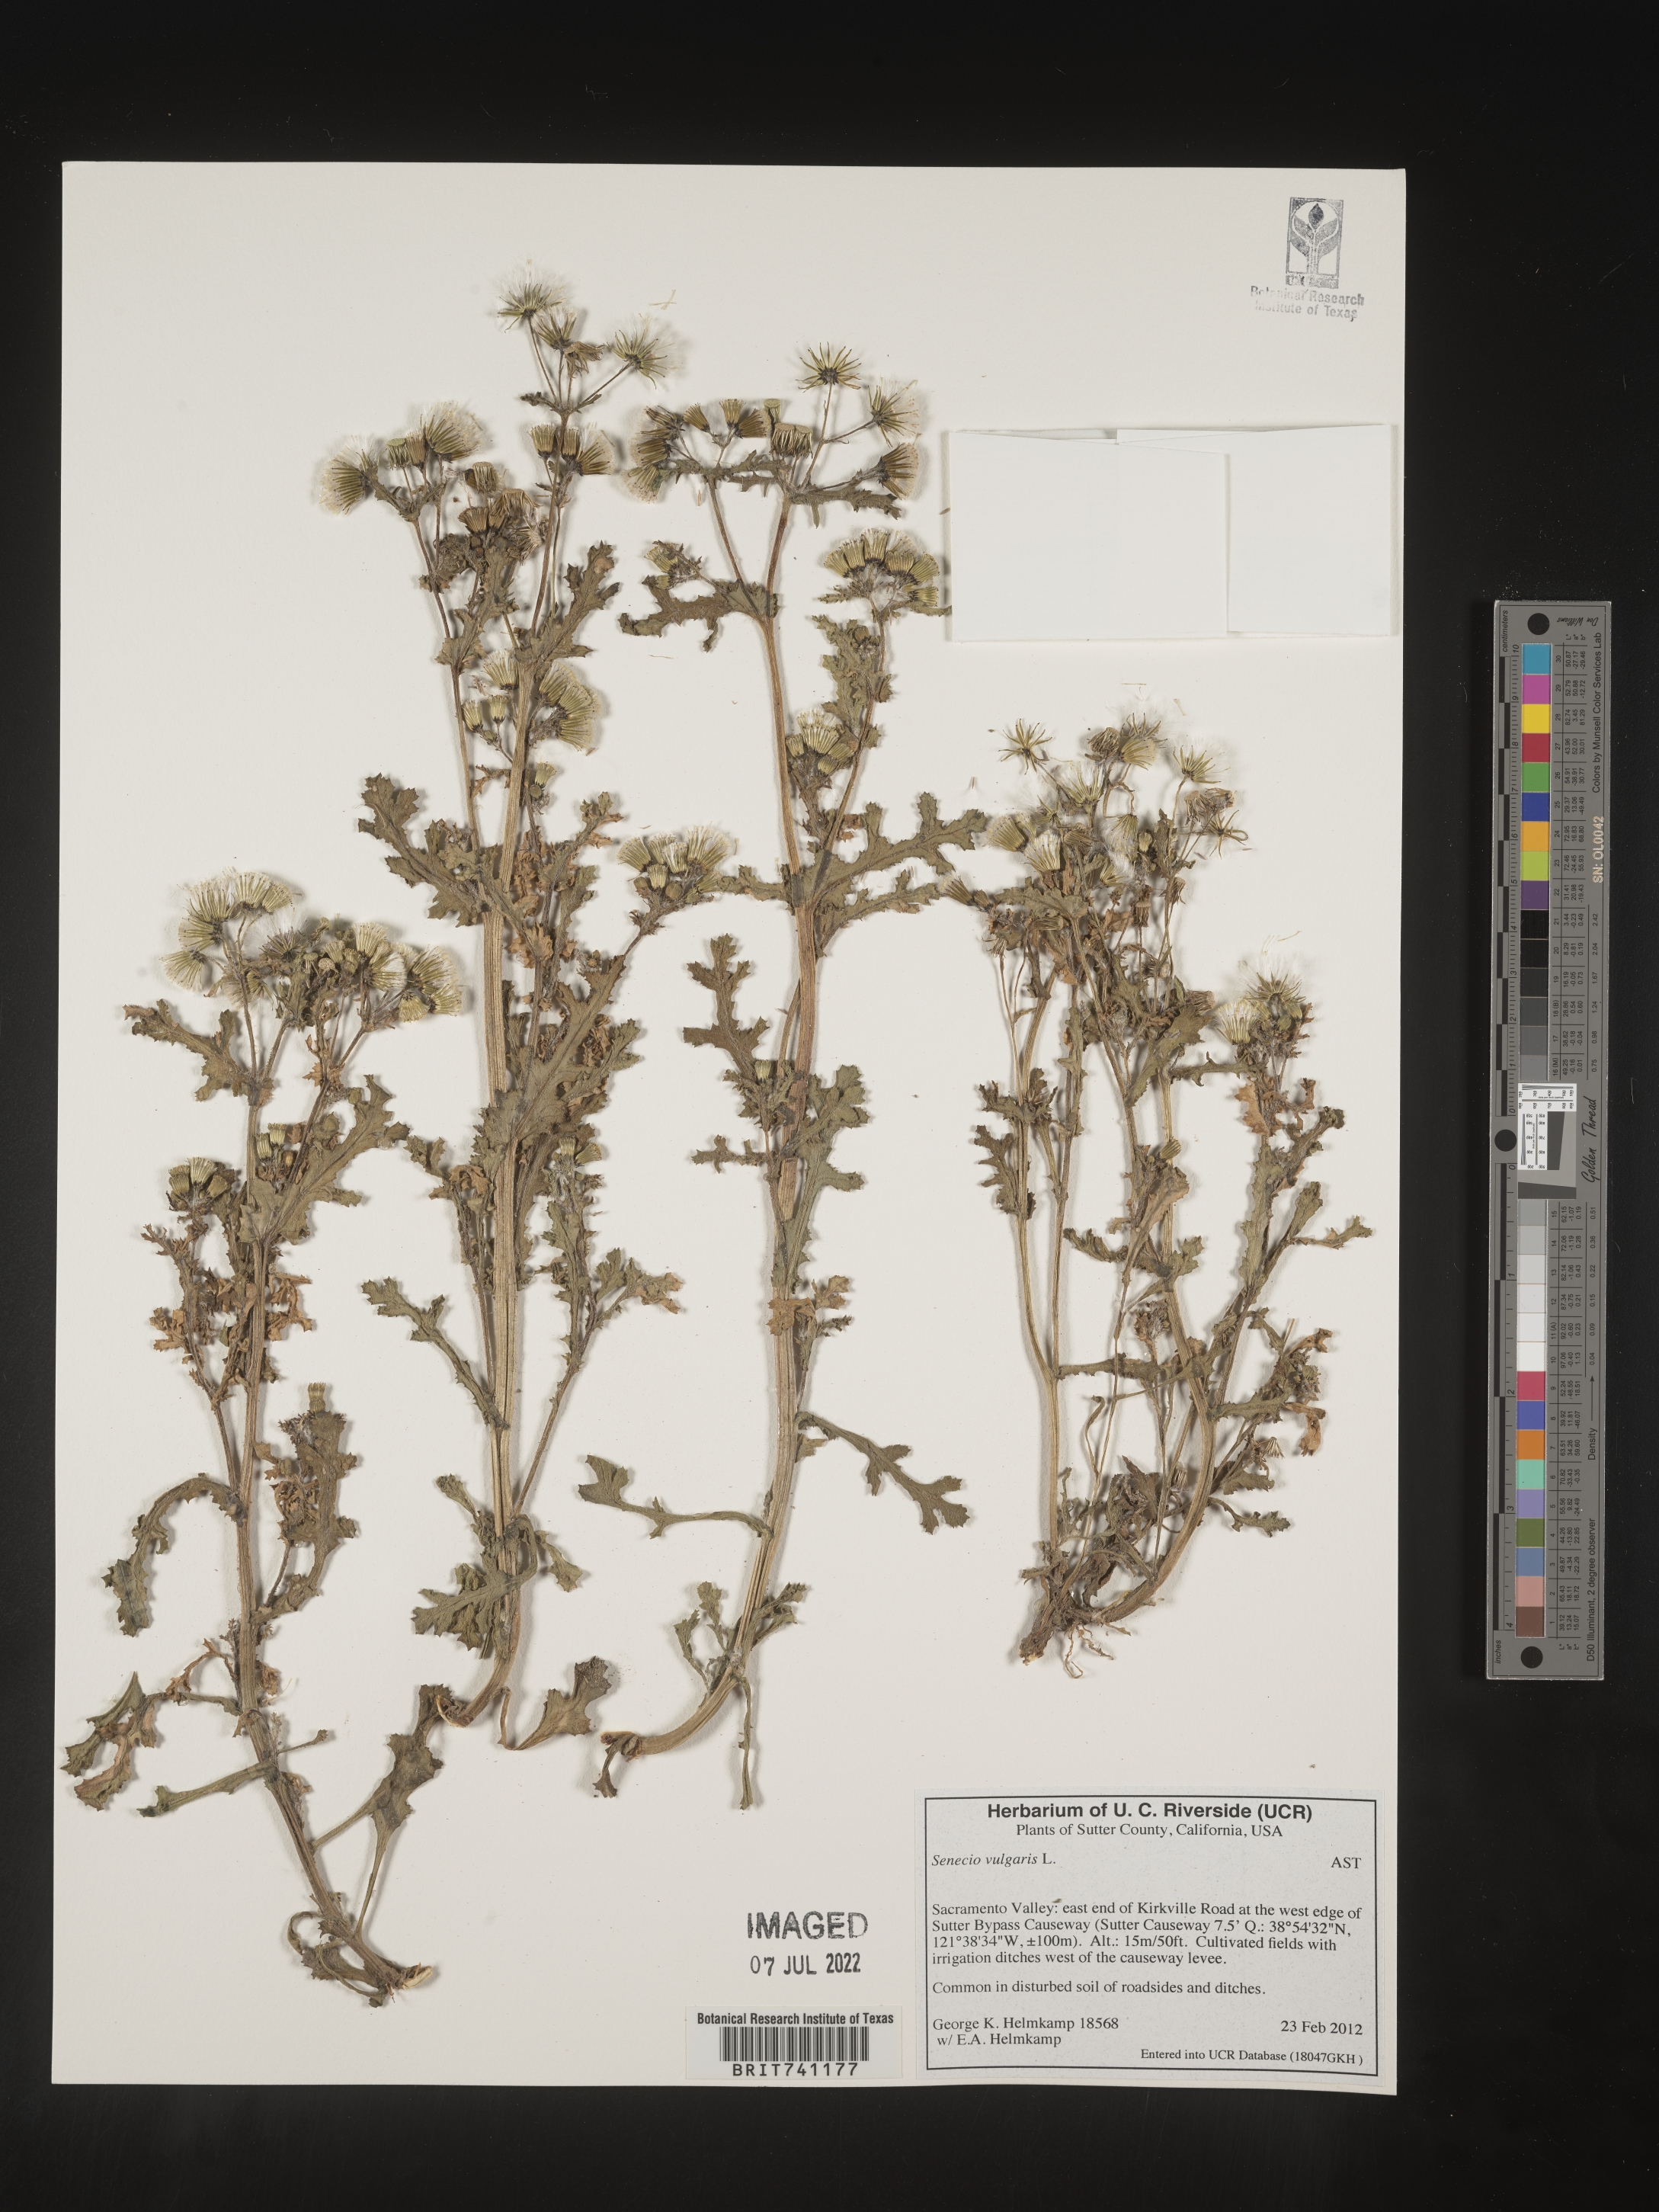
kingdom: Plantae
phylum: Tracheophyta
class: Magnoliopsida
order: Asterales
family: Asteraceae
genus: Senecio
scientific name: Senecio vulgaris
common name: Old-man-in-the-spring
